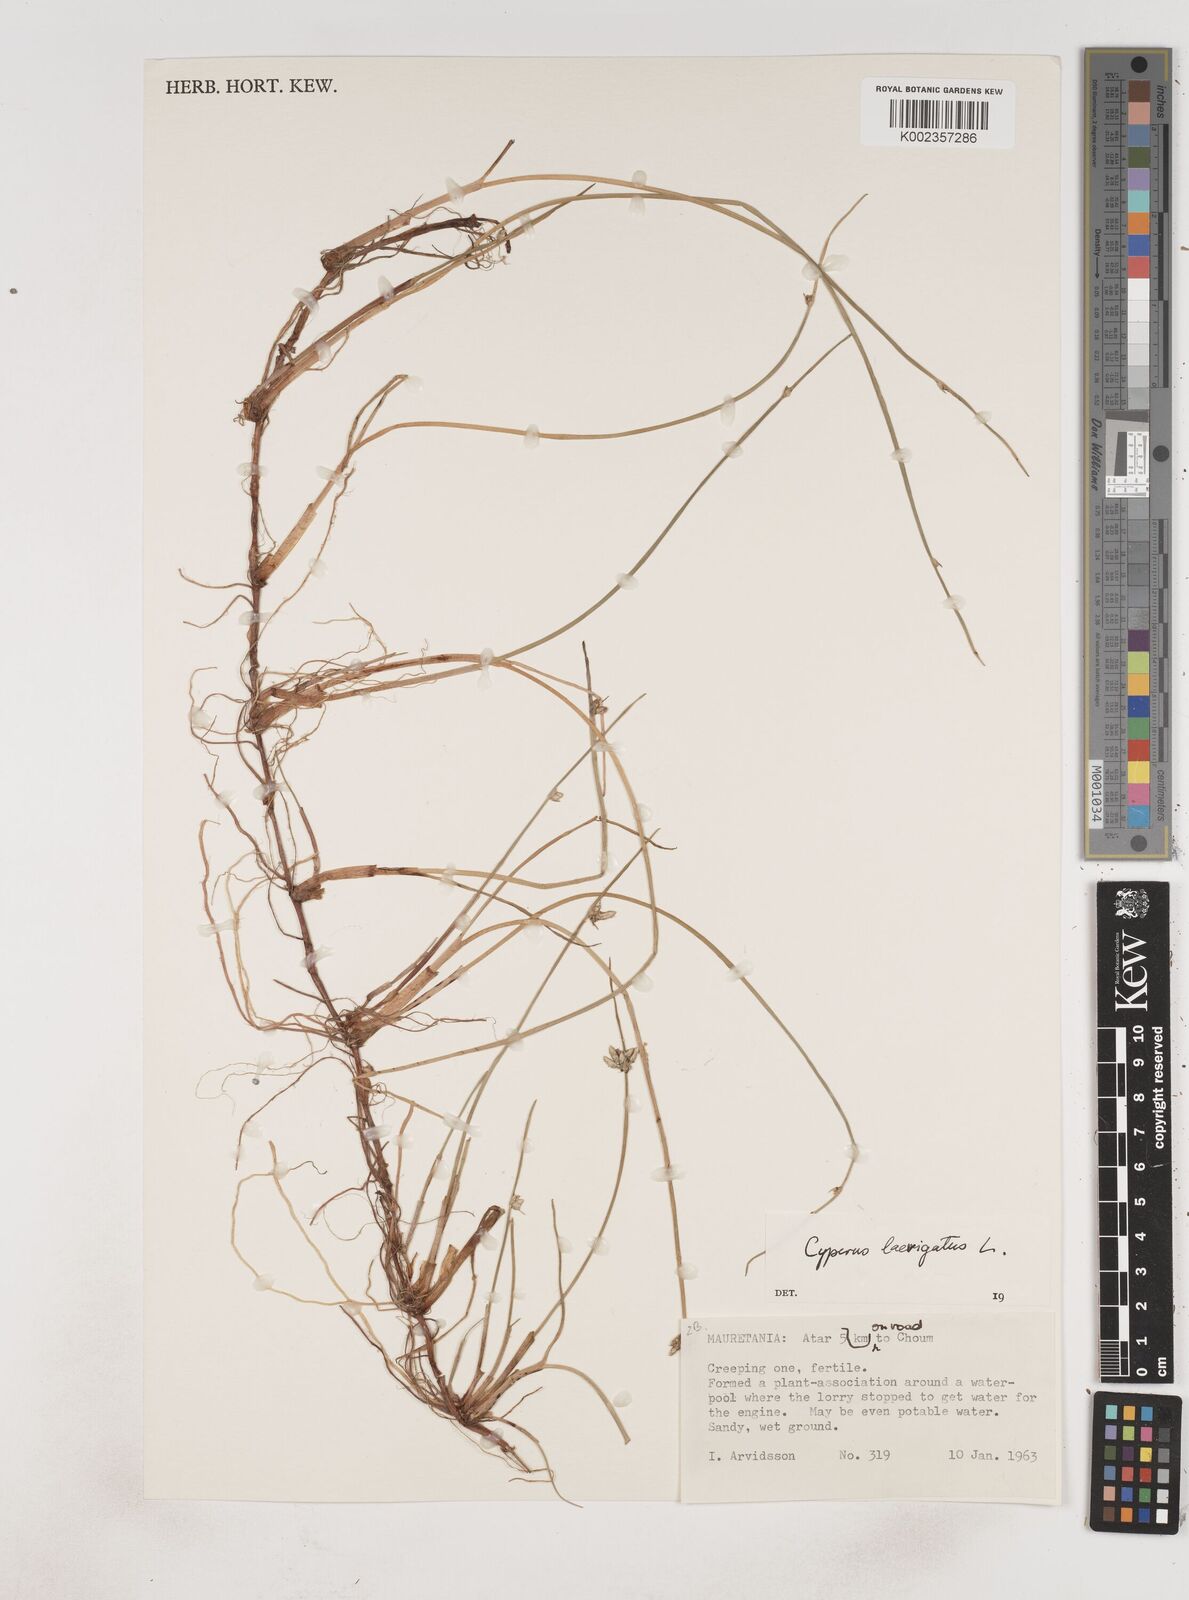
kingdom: Plantae
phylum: Tracheophyta
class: Liliopsida
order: Poales
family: Cyperaceae
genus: Cyperus
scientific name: Cyperus
